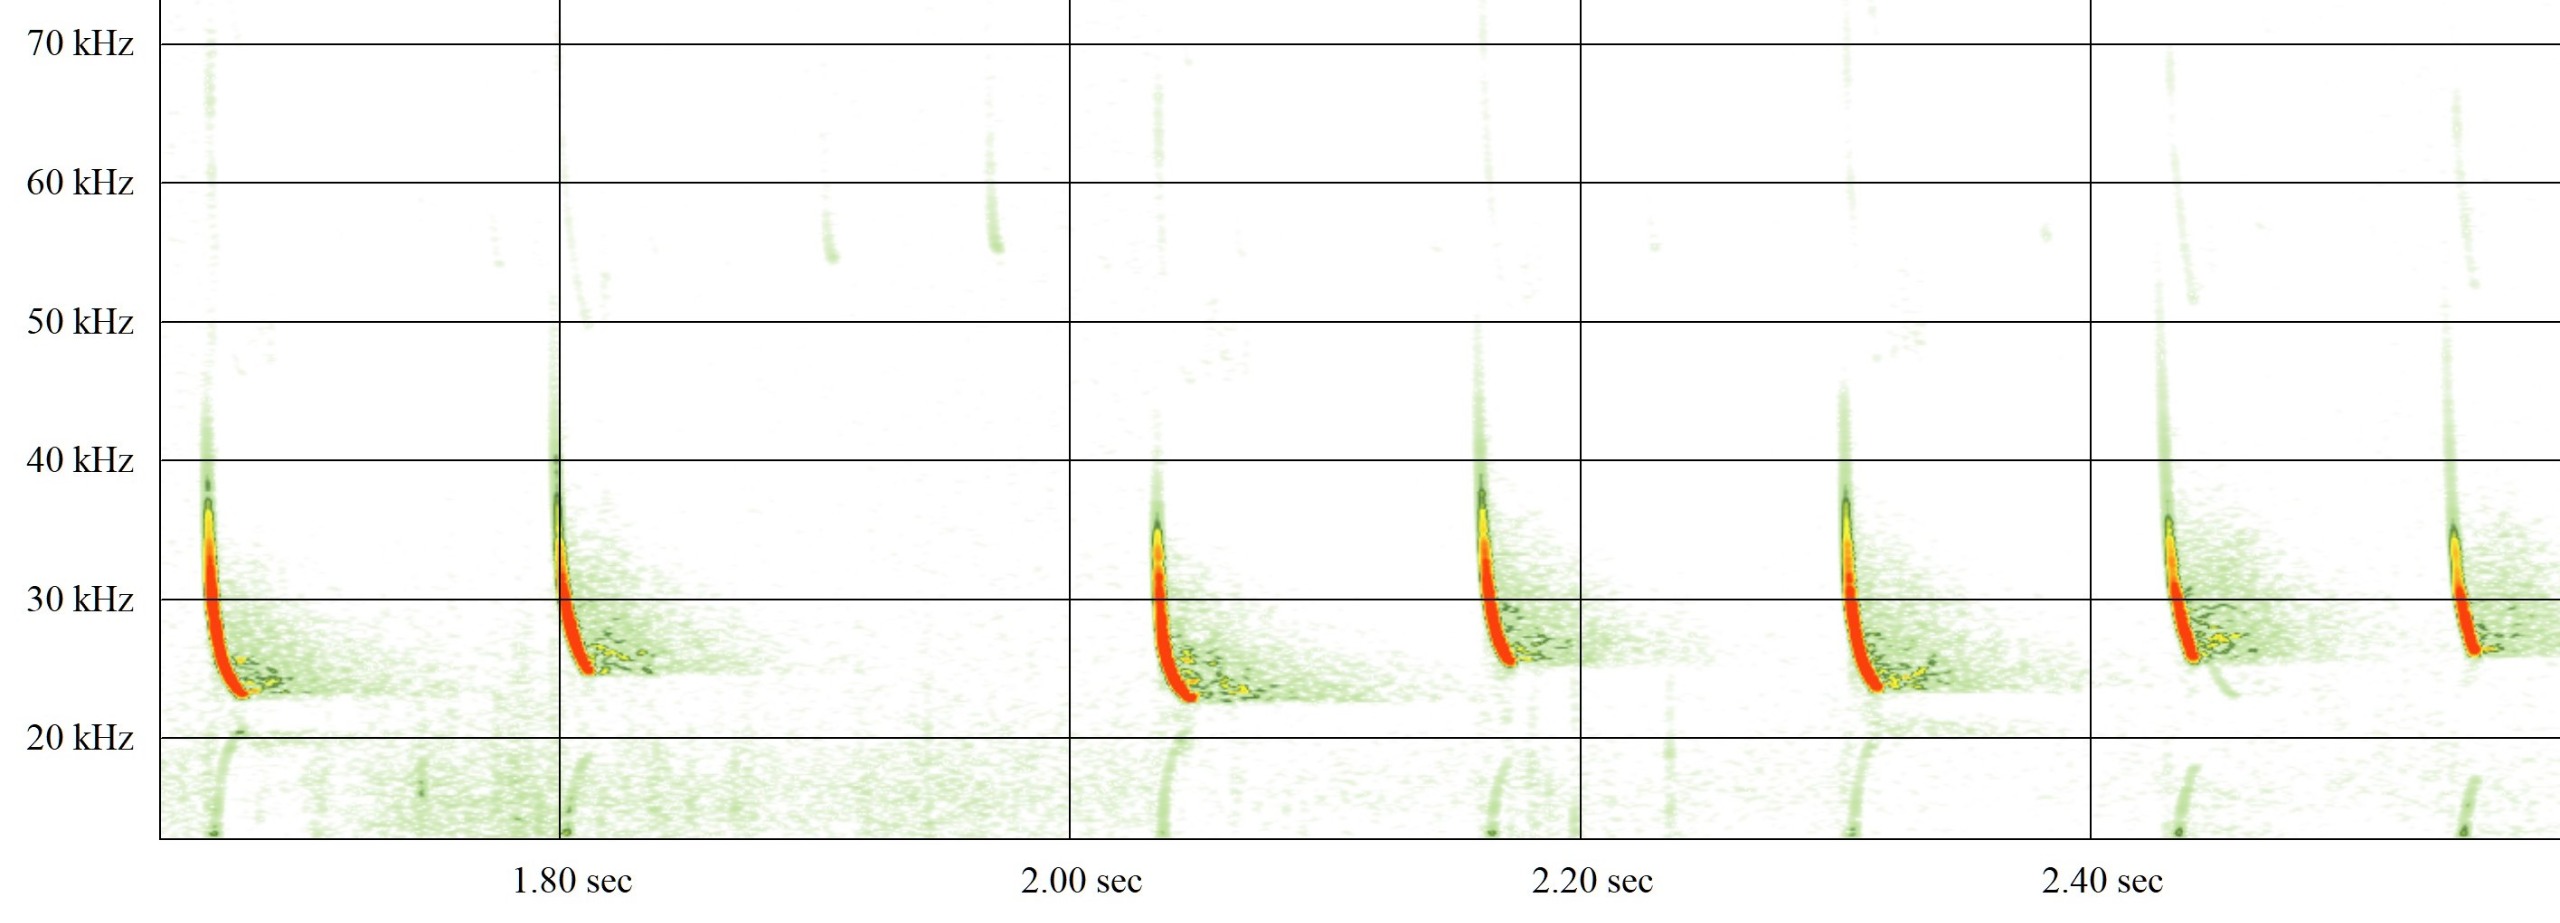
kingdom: Animalia
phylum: Chordata
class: Mammalia
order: Chiroptera
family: Vespertilionidae
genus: Eptesicus
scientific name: Eptesicus serotinus
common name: Sydflagermus
